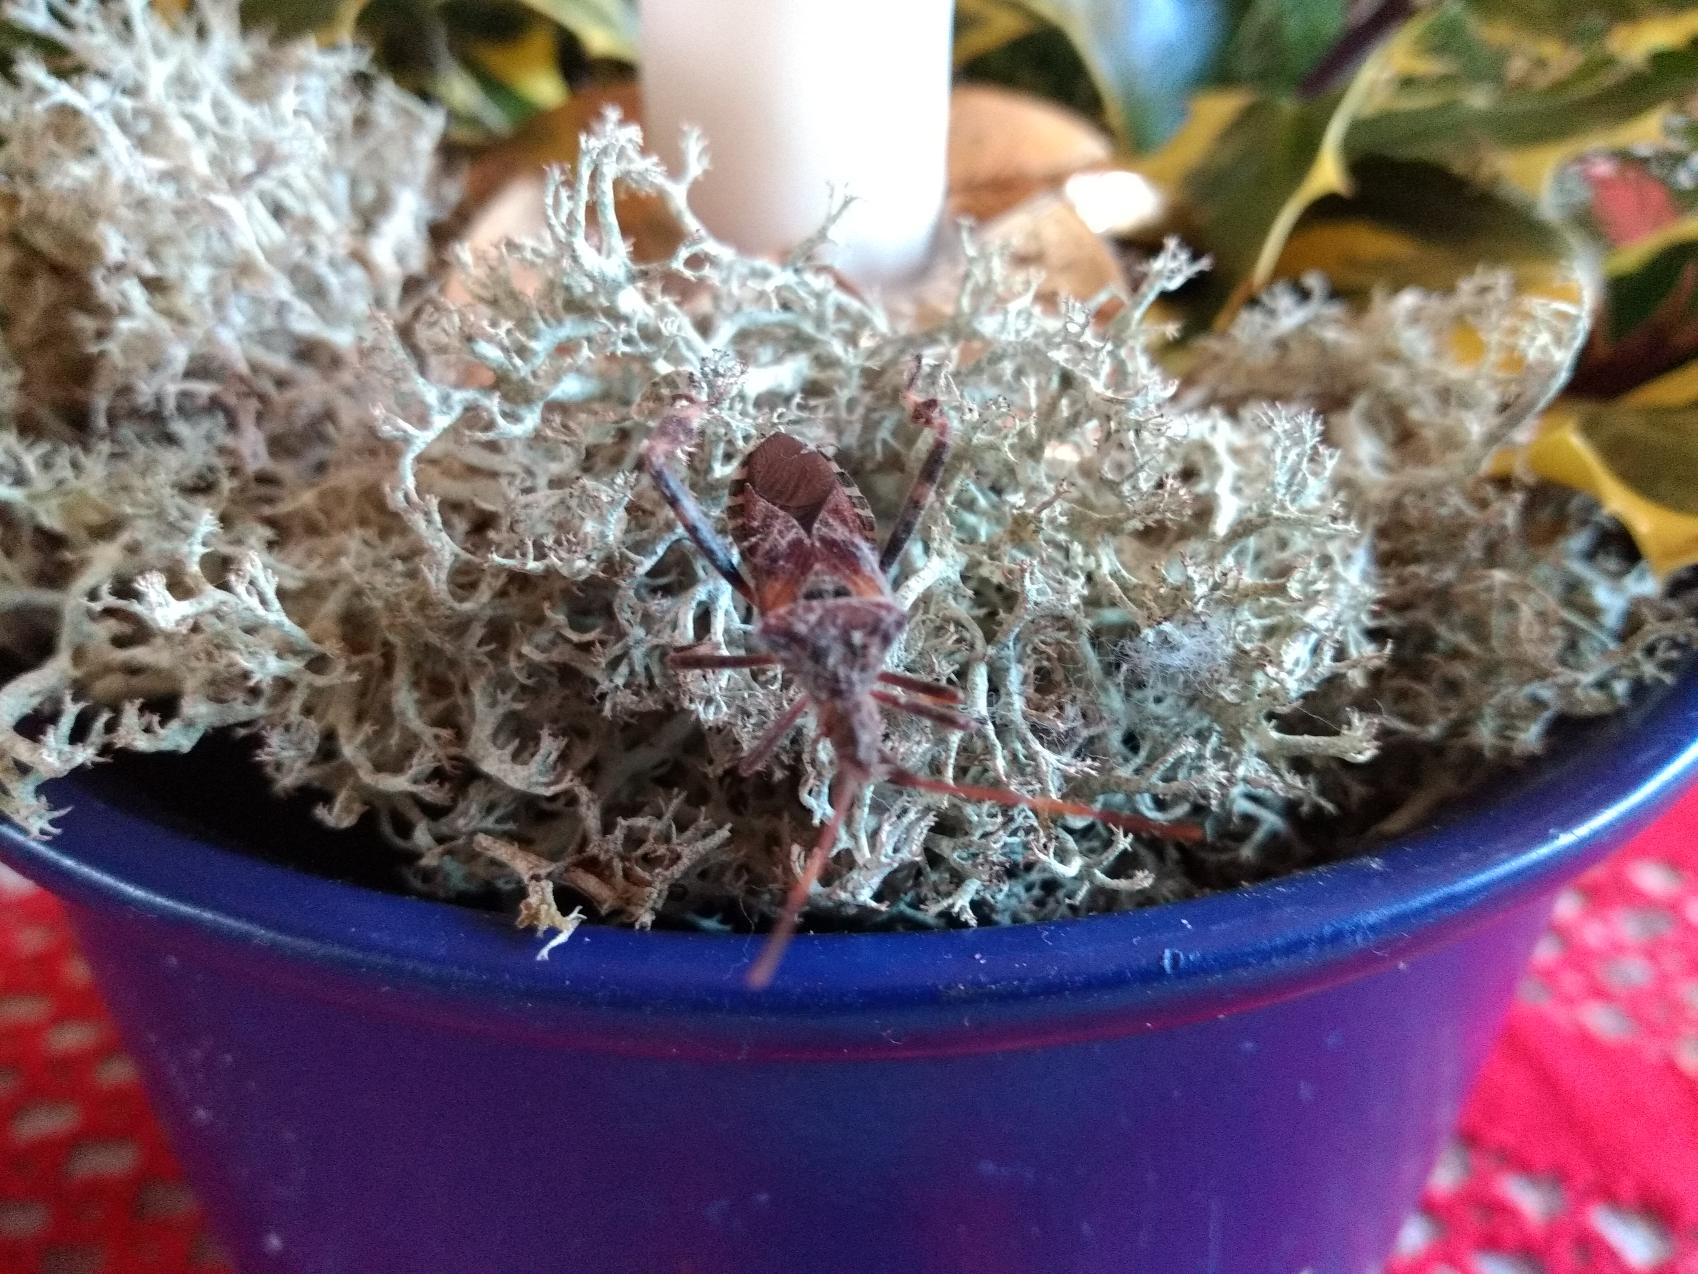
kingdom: Animalia
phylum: Arthropoda
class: Insecta
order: Hemiptera
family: Coreidae
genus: Leptoglossus
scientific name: Leptoglossus occidentalis
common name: Amerikansk fyrretæge
